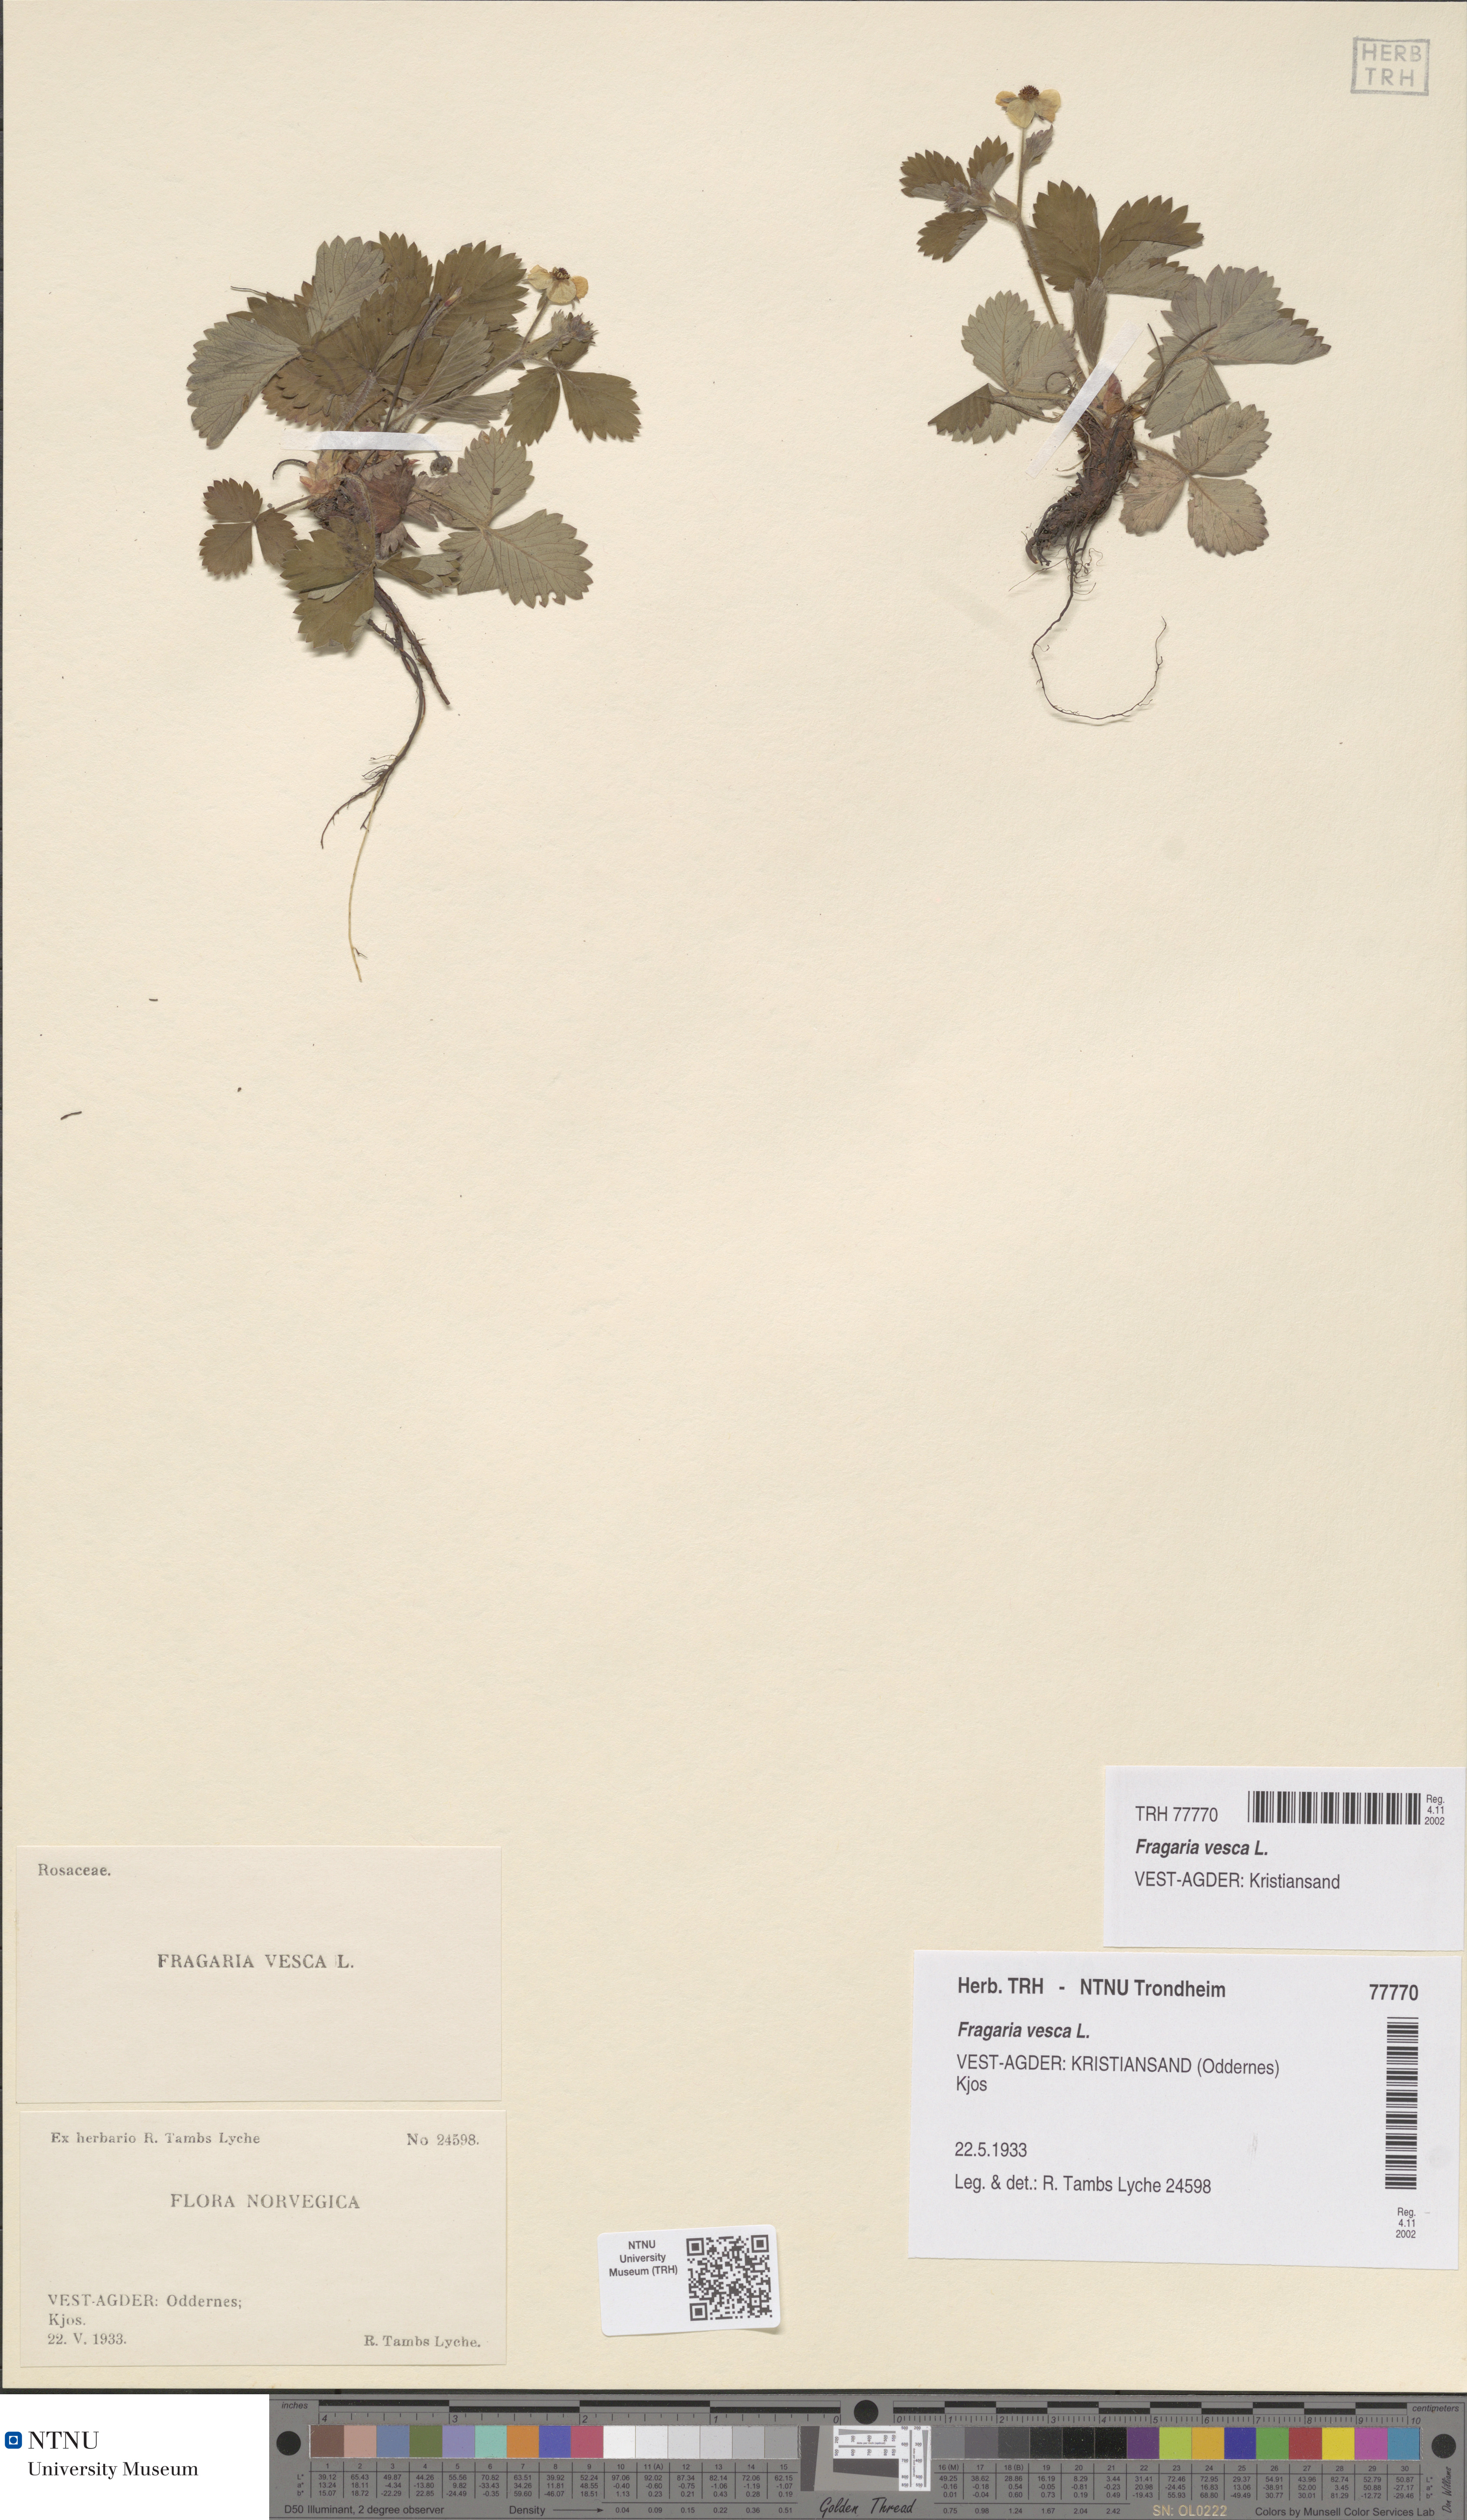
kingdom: Plantae
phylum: Tracheophyta
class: Magnoliopsida
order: Rosales
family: Rosaceae
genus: Fragaria
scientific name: Fragaria vesca
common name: Wild strawberry
